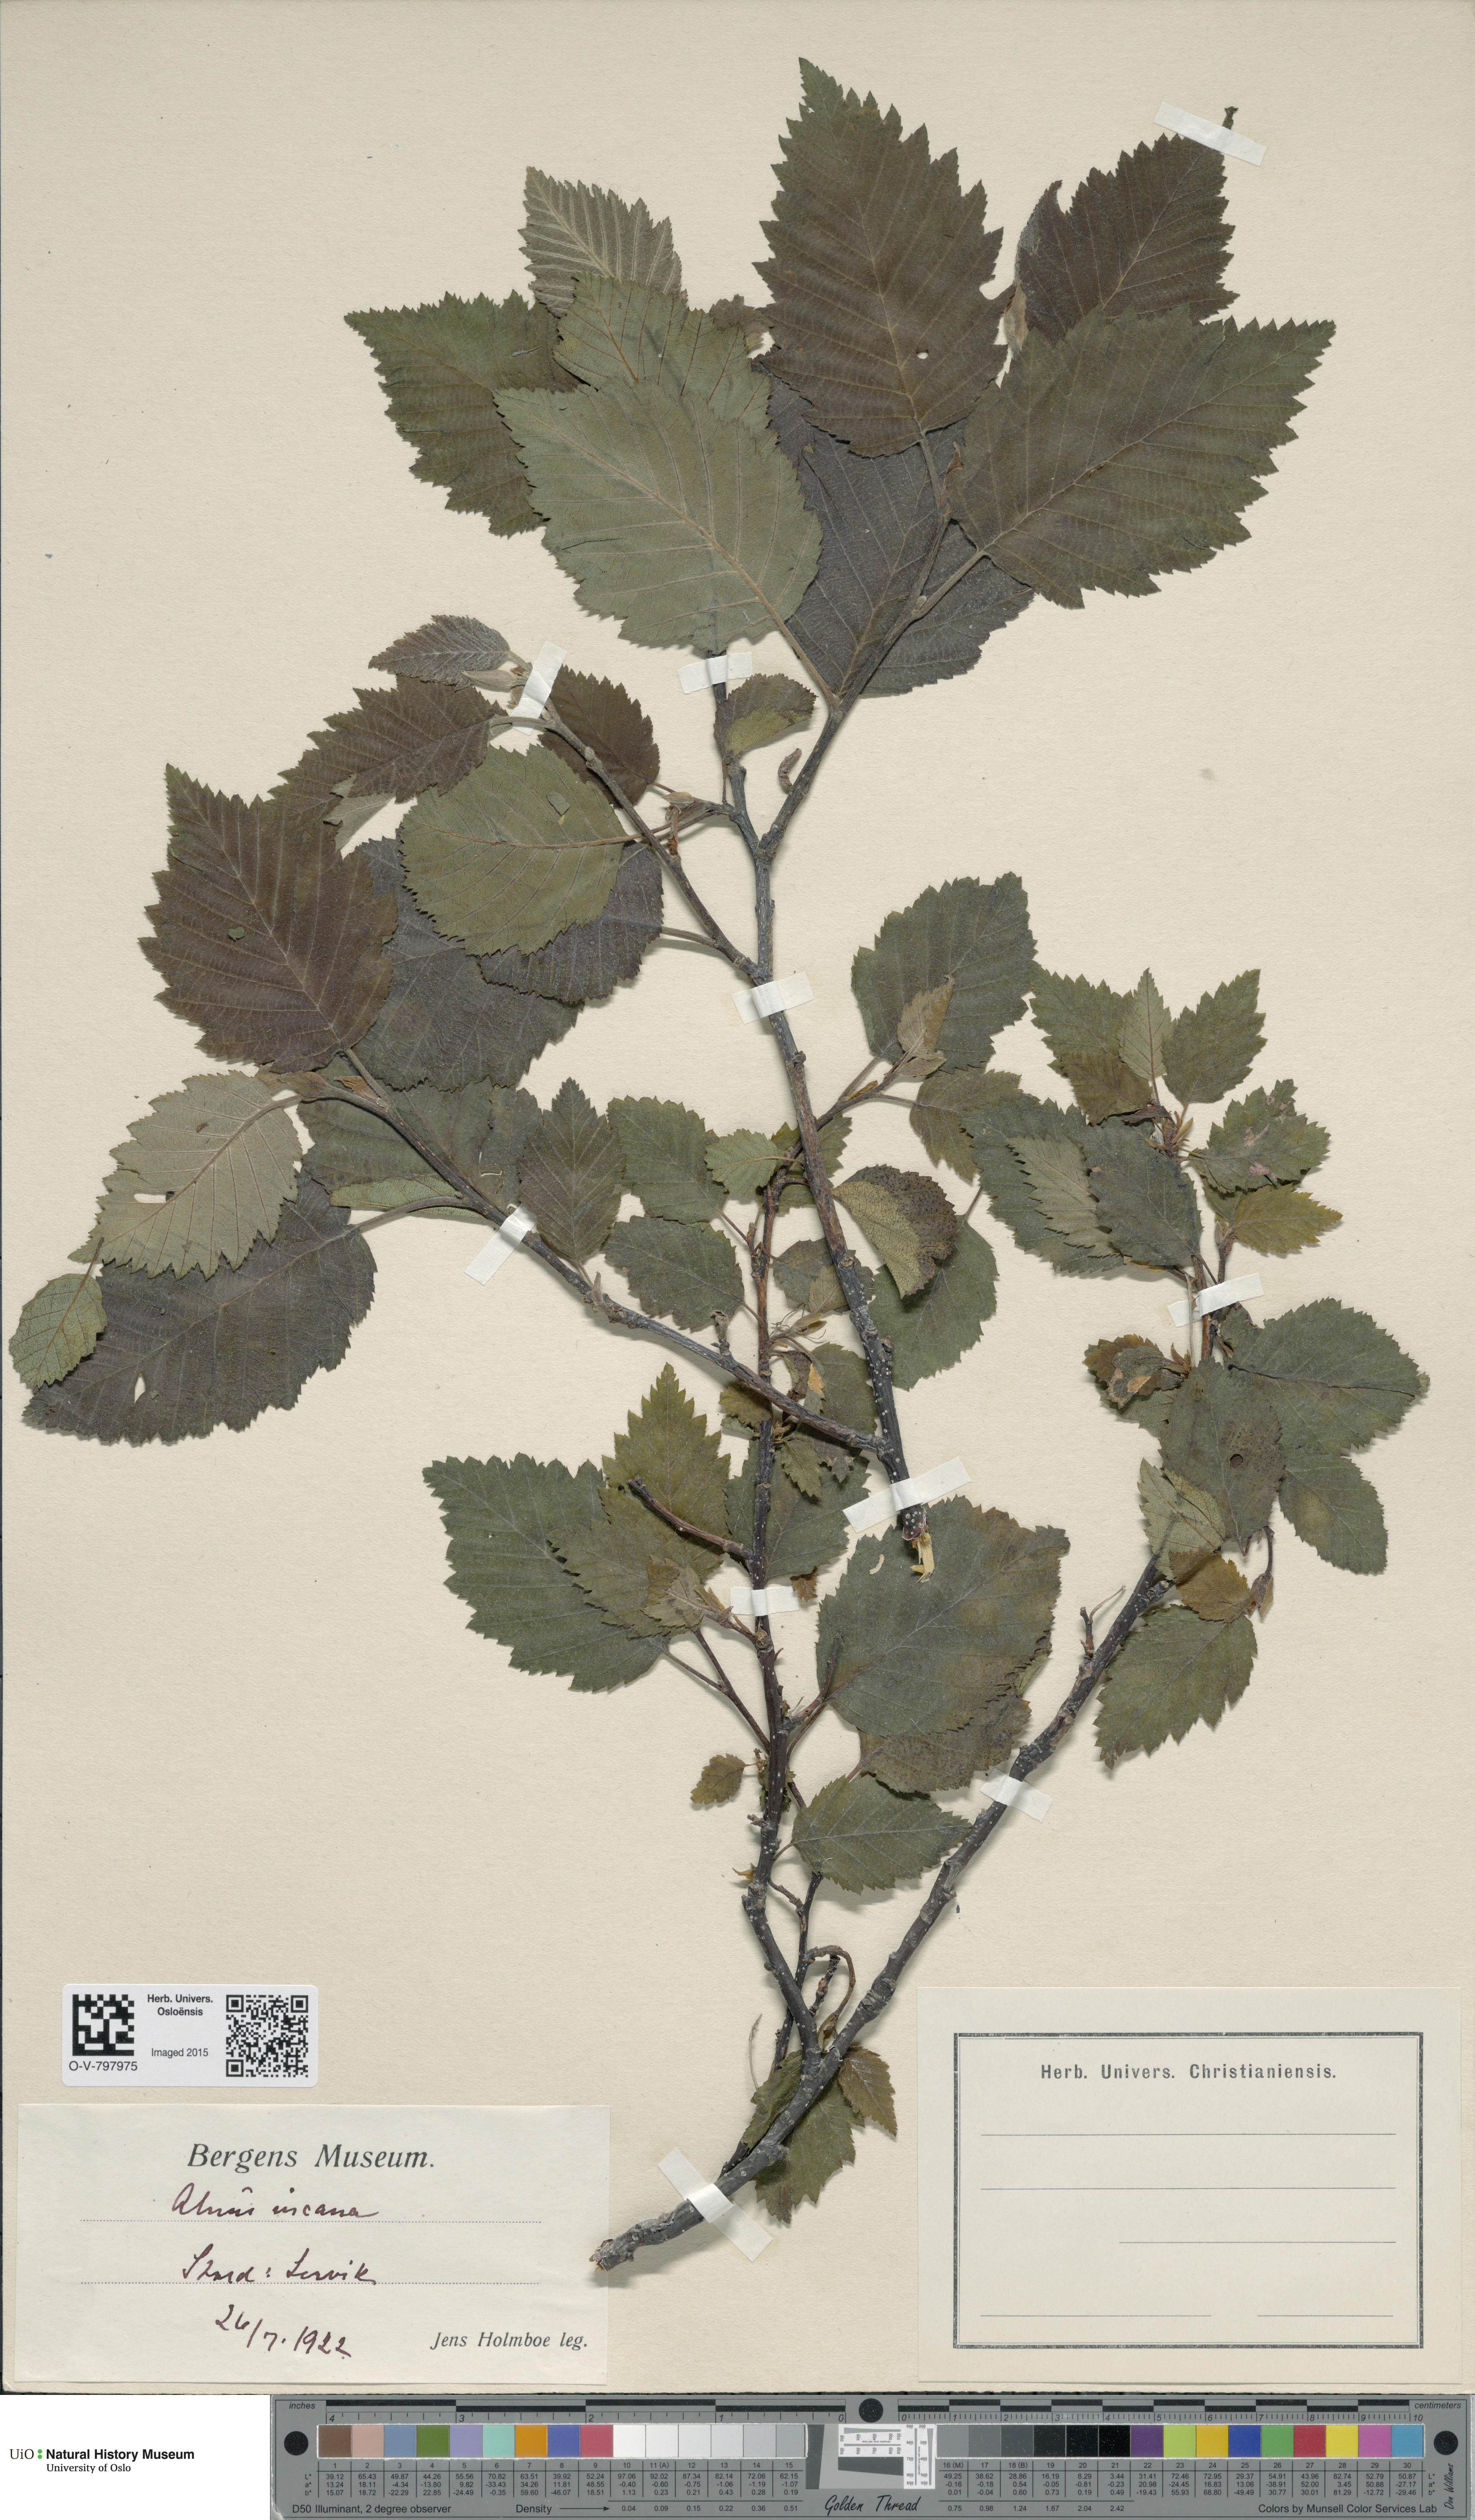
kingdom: Plantae
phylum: Tracheophyta
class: Magnoliopsida
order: Fagales
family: Betulaceae
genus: Alnus
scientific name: Alnus incana
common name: Grey alder
